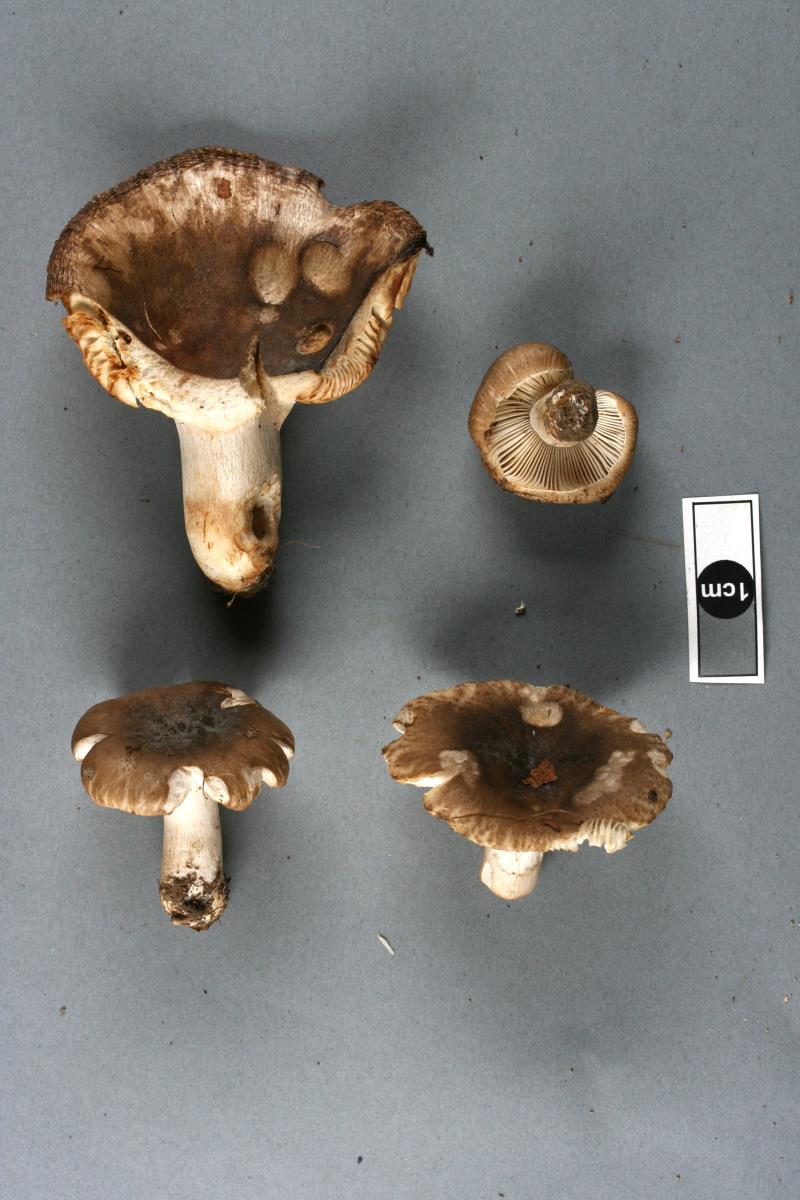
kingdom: Fungi
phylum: Basidiomycota
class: Agaricomycetes
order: Russulales
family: Russulaceae
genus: Russula
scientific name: Russula amoenolens
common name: Camembert brittlegill
